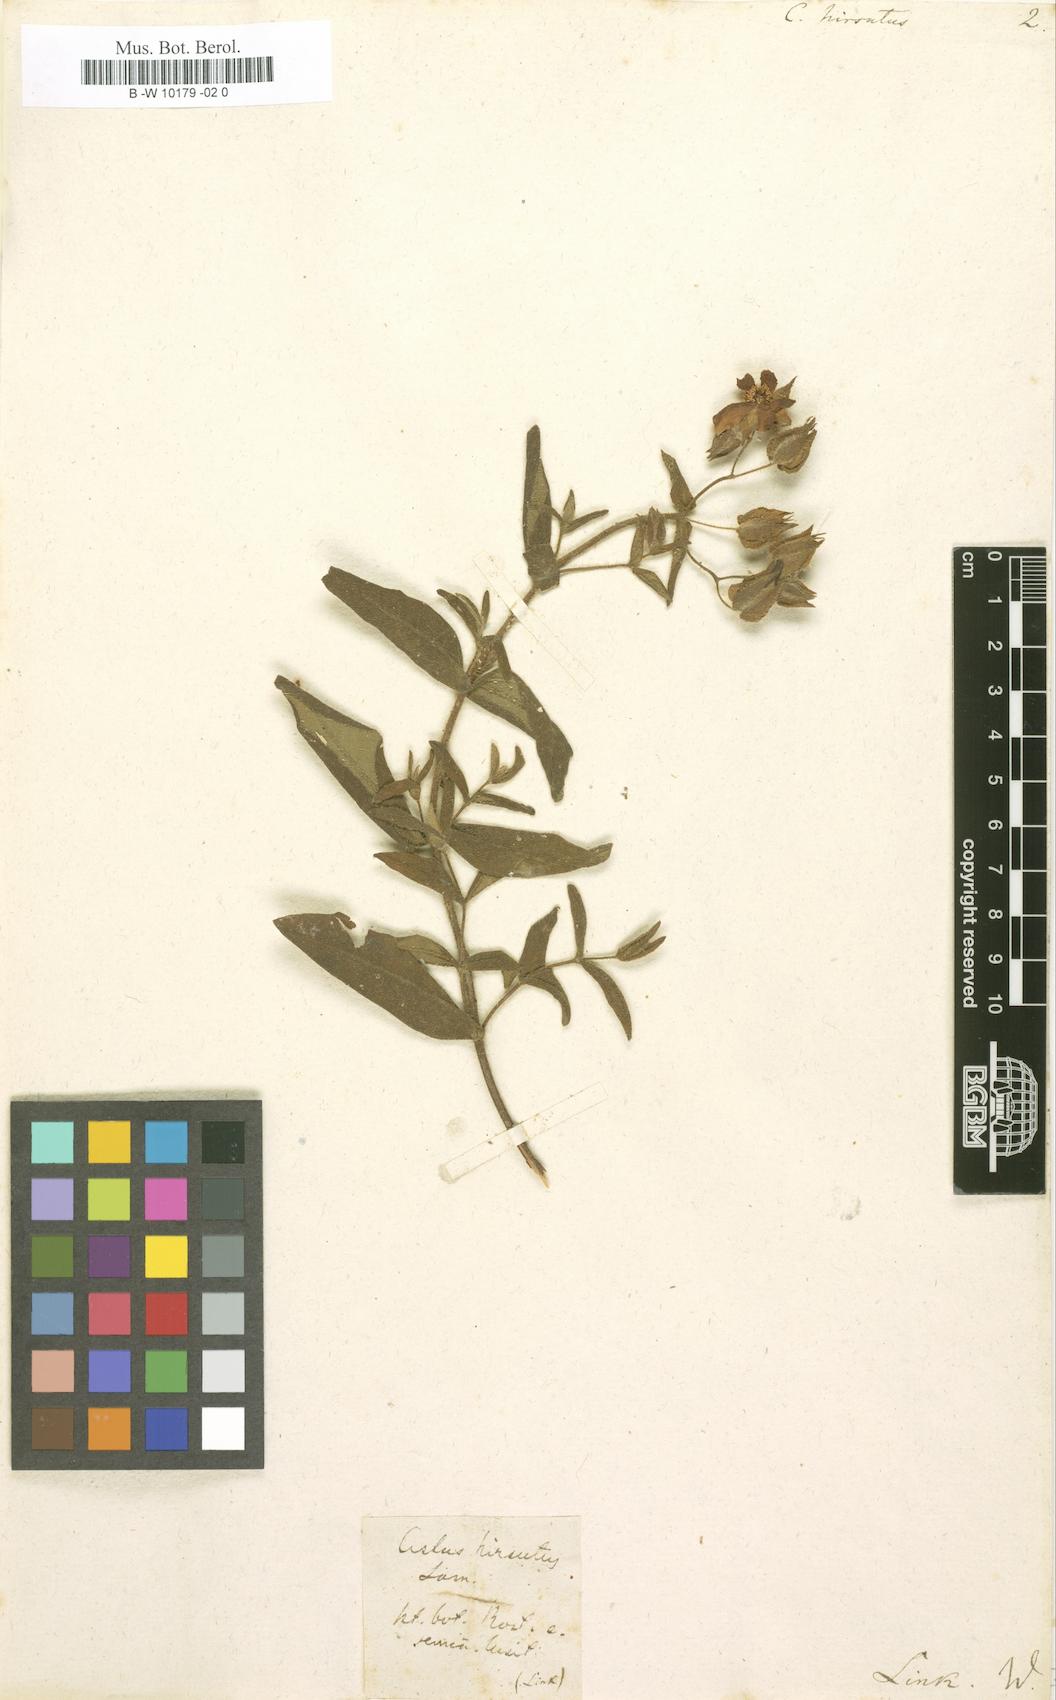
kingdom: Plantae
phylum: Tracheophyta
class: Magnoliopsida
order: Malvales
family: Cistaceae
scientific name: Cistaceae
